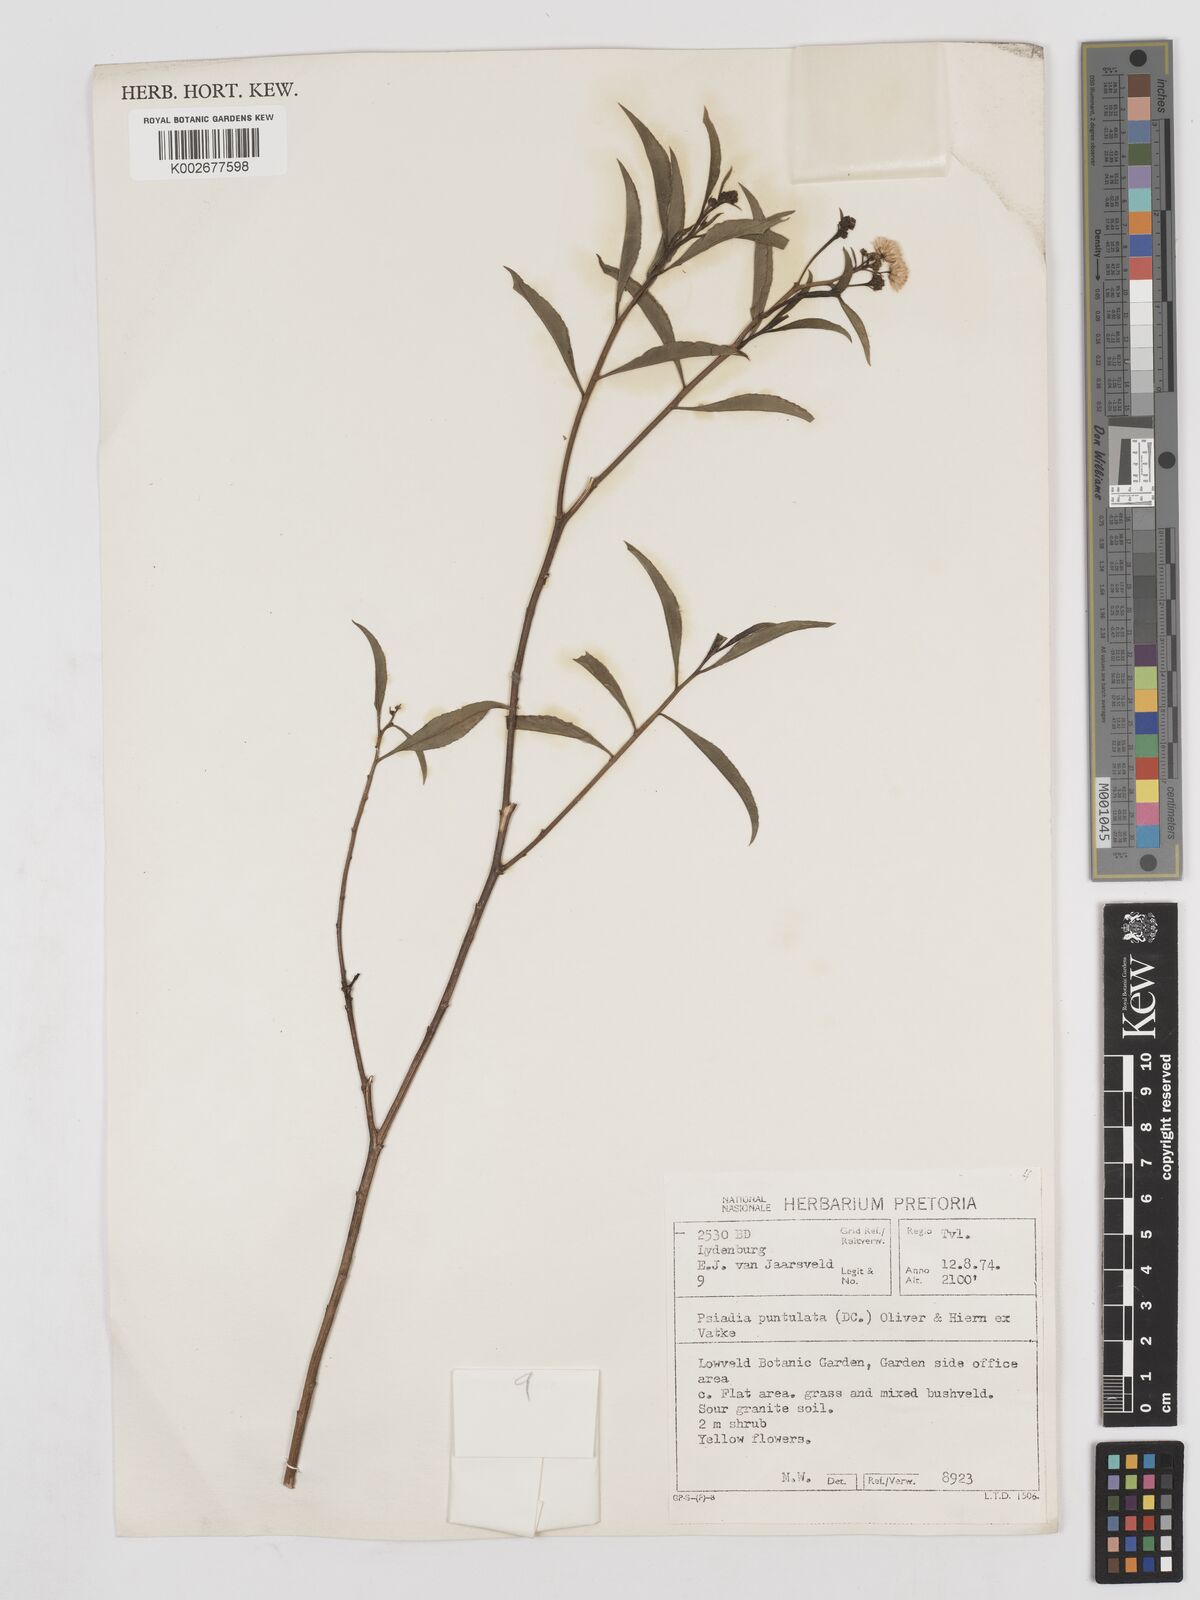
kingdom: Plantae
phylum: Tracheophyta
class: Magnoliopsida
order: Asterales
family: Asteraceae
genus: Psiadia
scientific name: Psiadia punctulata
